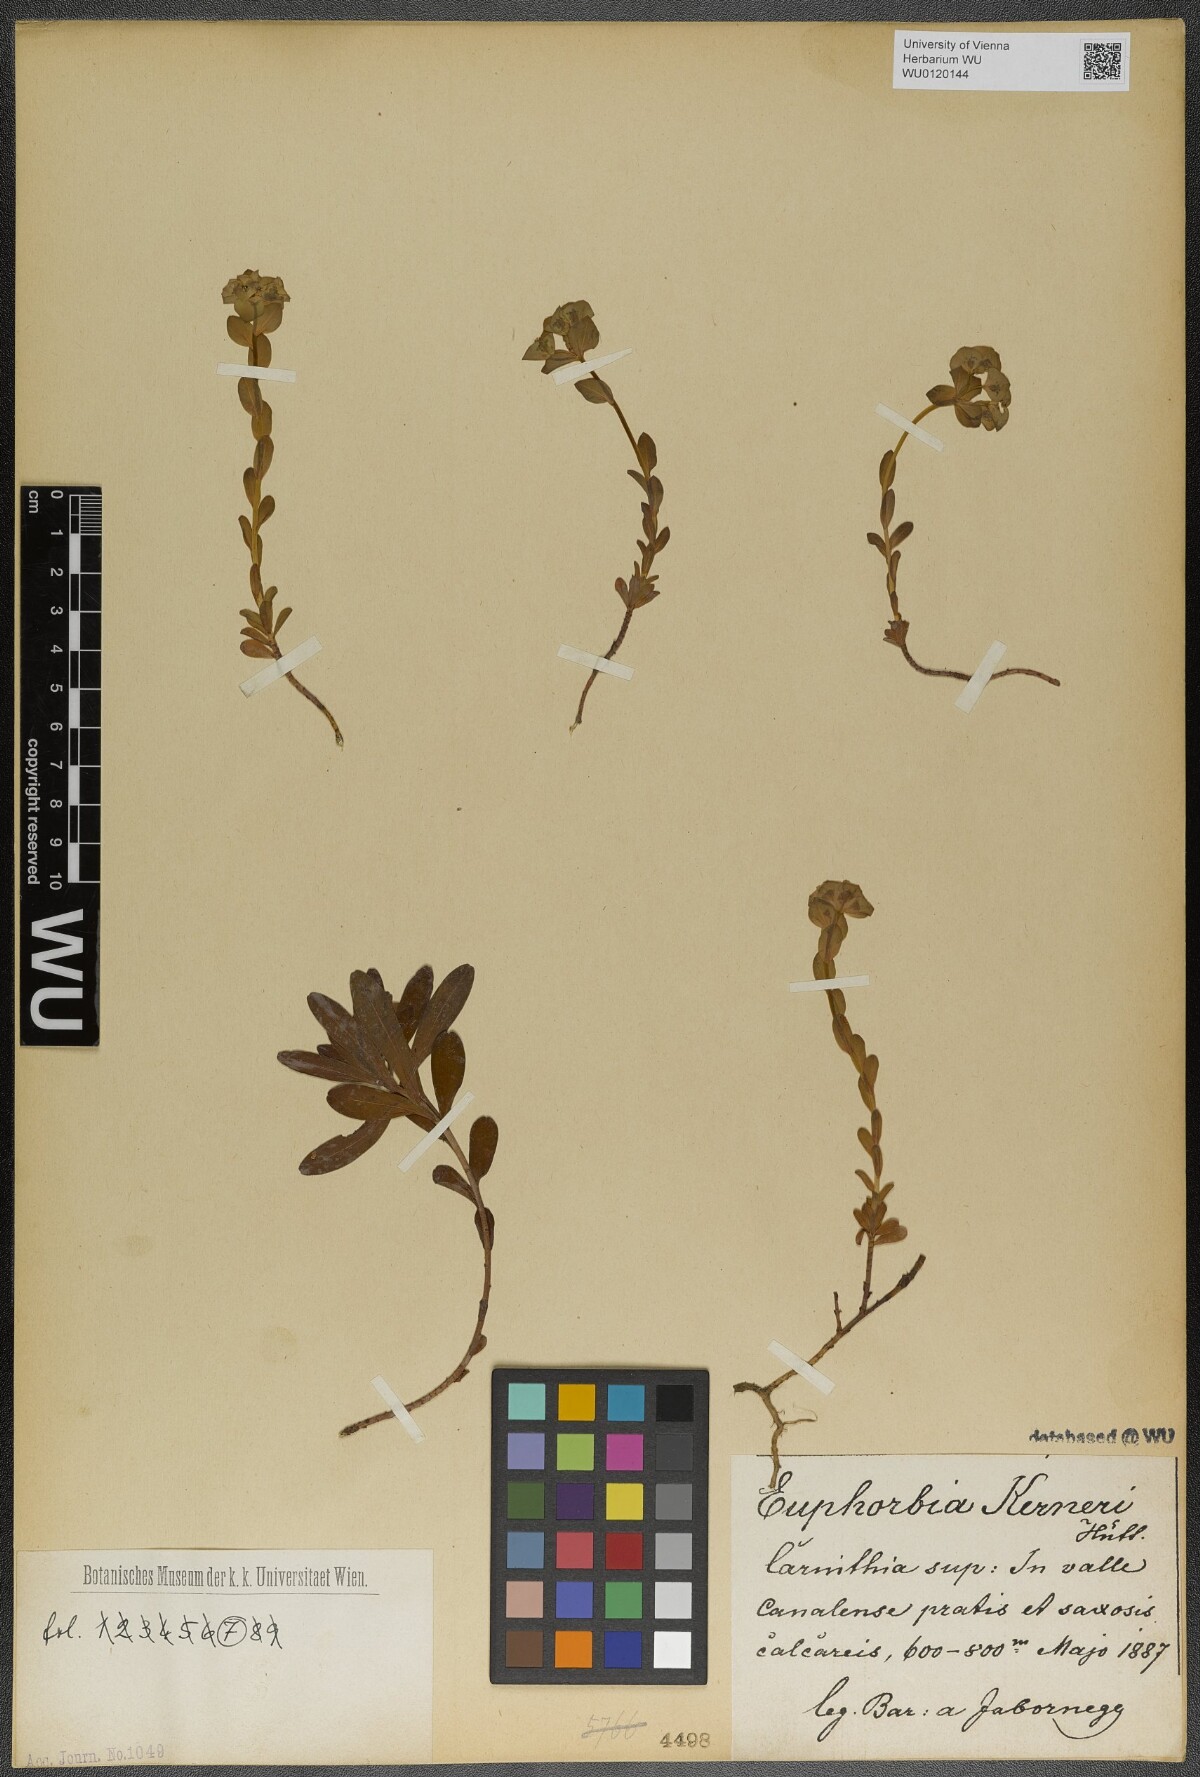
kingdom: Plantae
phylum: Tracheophyta
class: Magnoliopsida
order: Malpighiales
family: Euphorbiaceae
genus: Euphorbia
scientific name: Euphorbia kerneri
